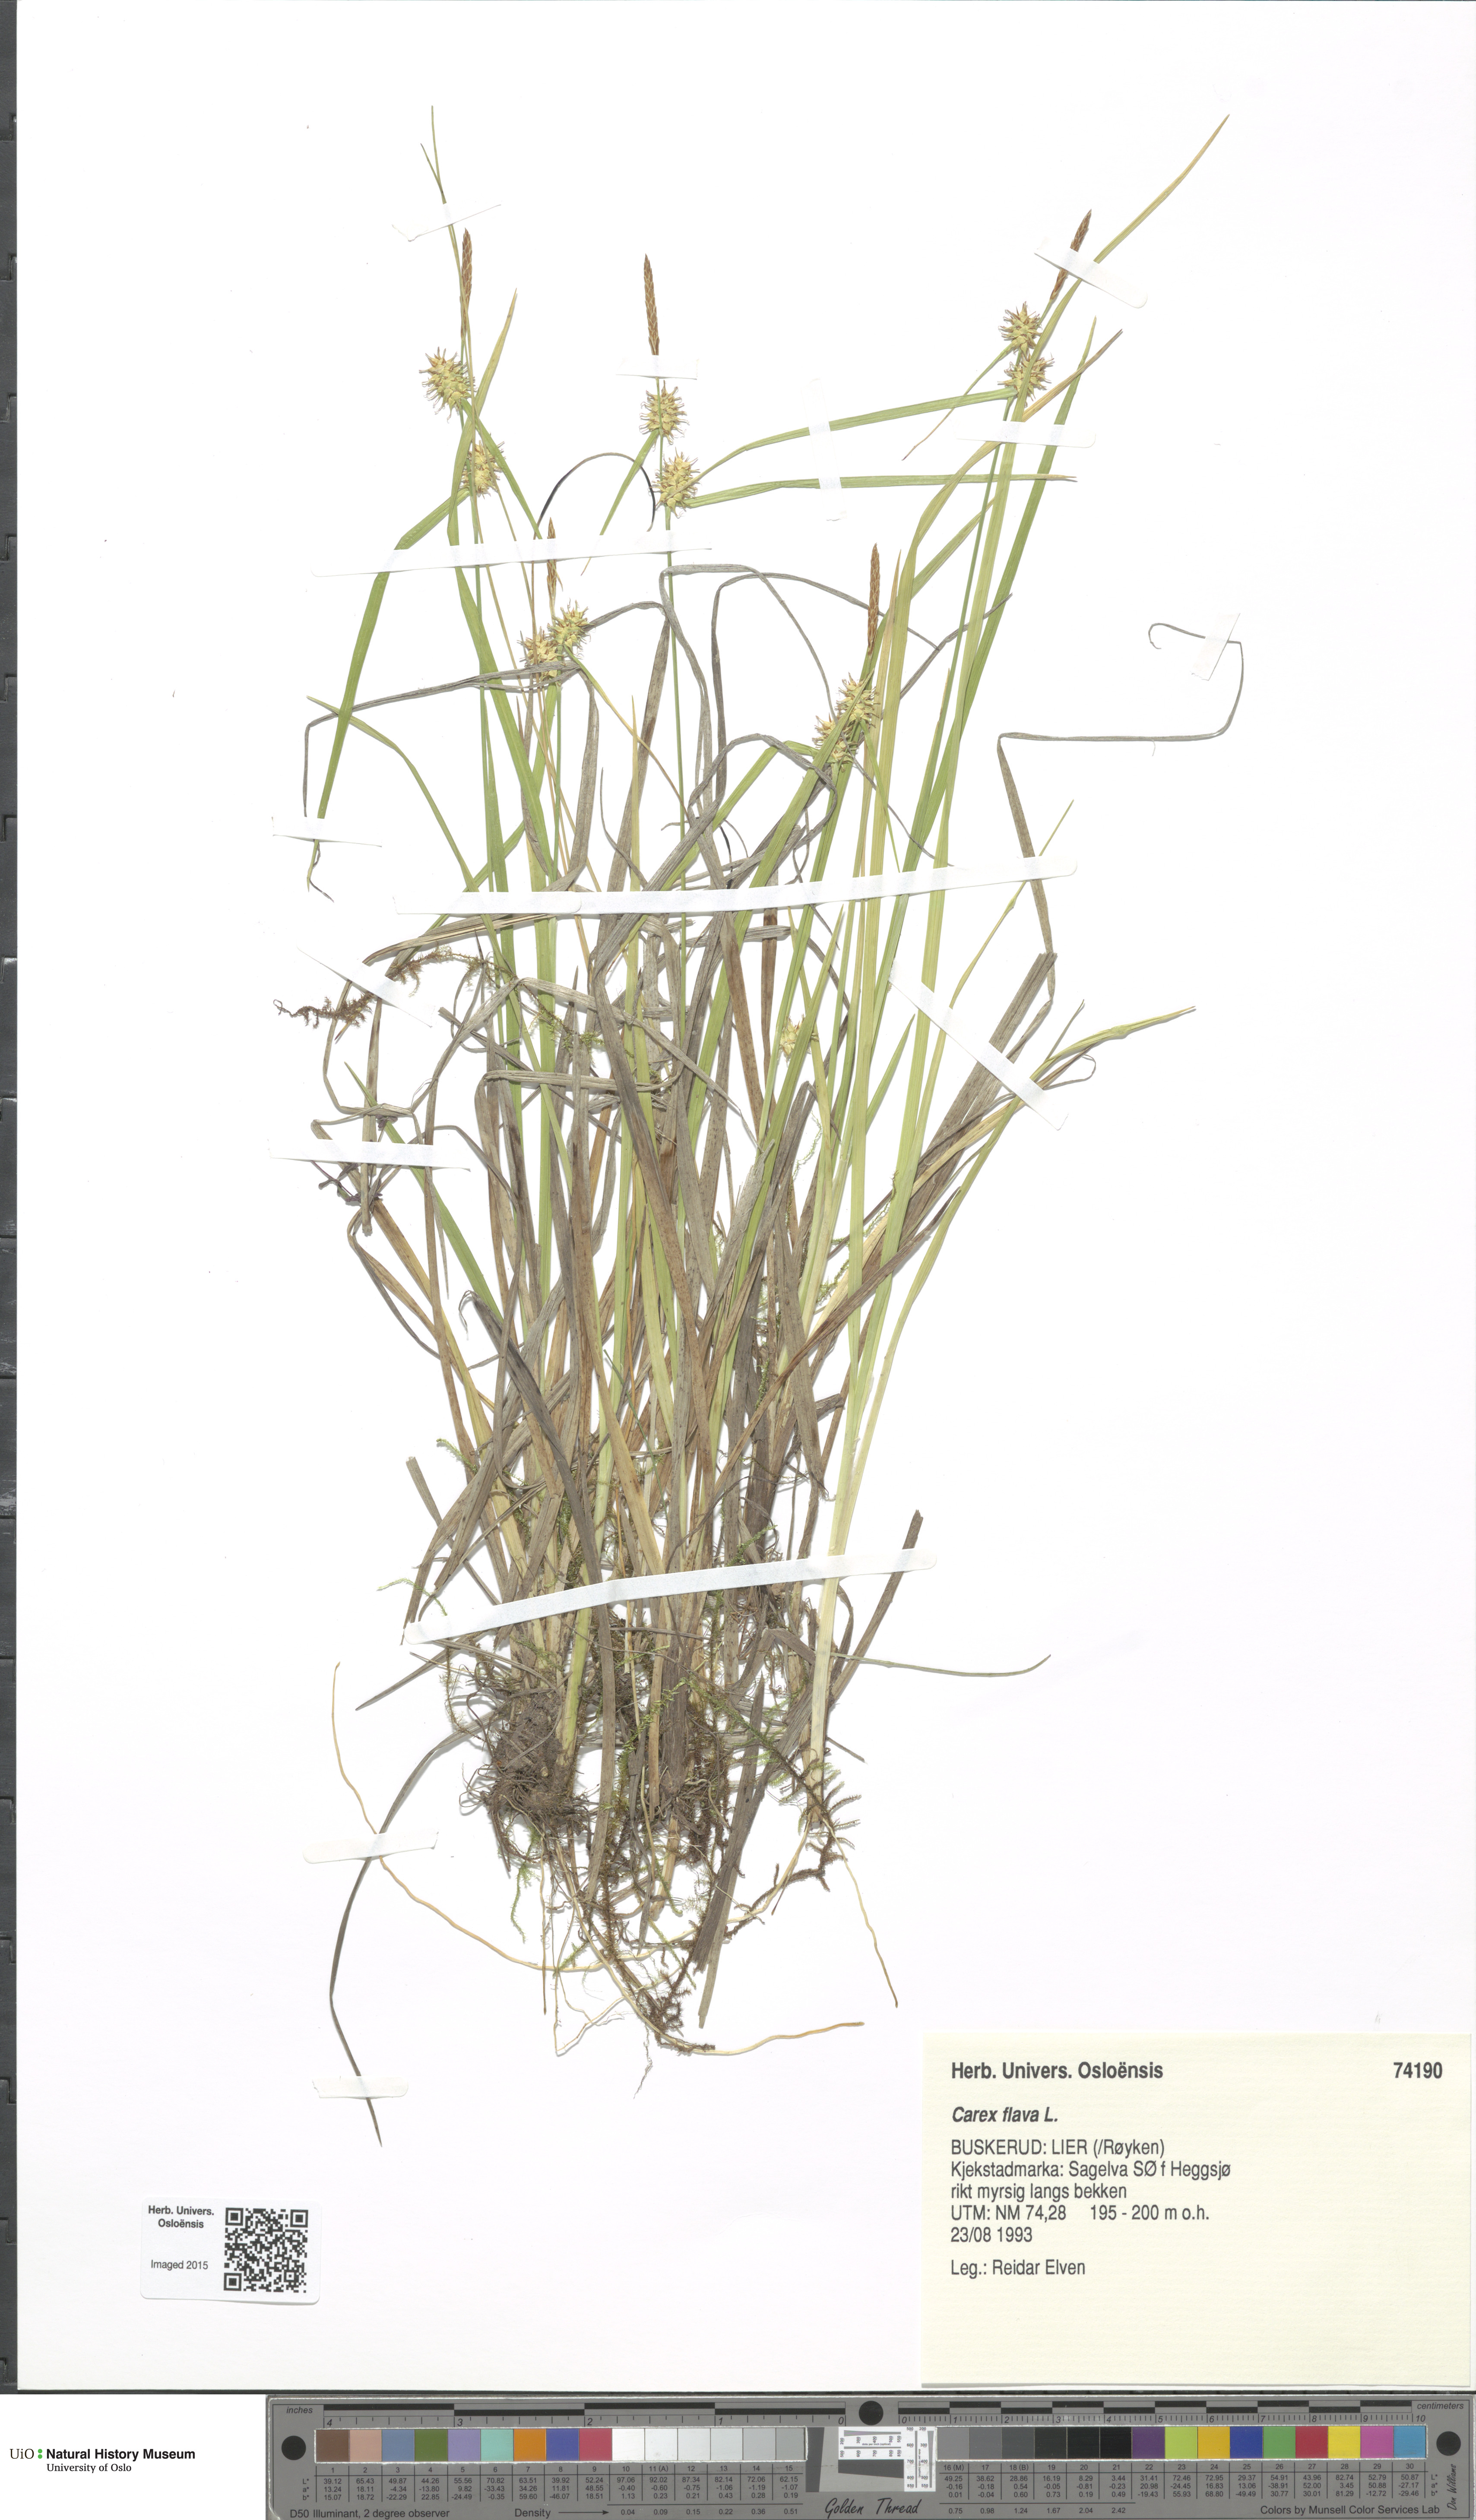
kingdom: Plantae
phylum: Tracheophyta
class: Liliopsida
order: Poales
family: Cyperaceae
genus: Carex
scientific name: Carex
